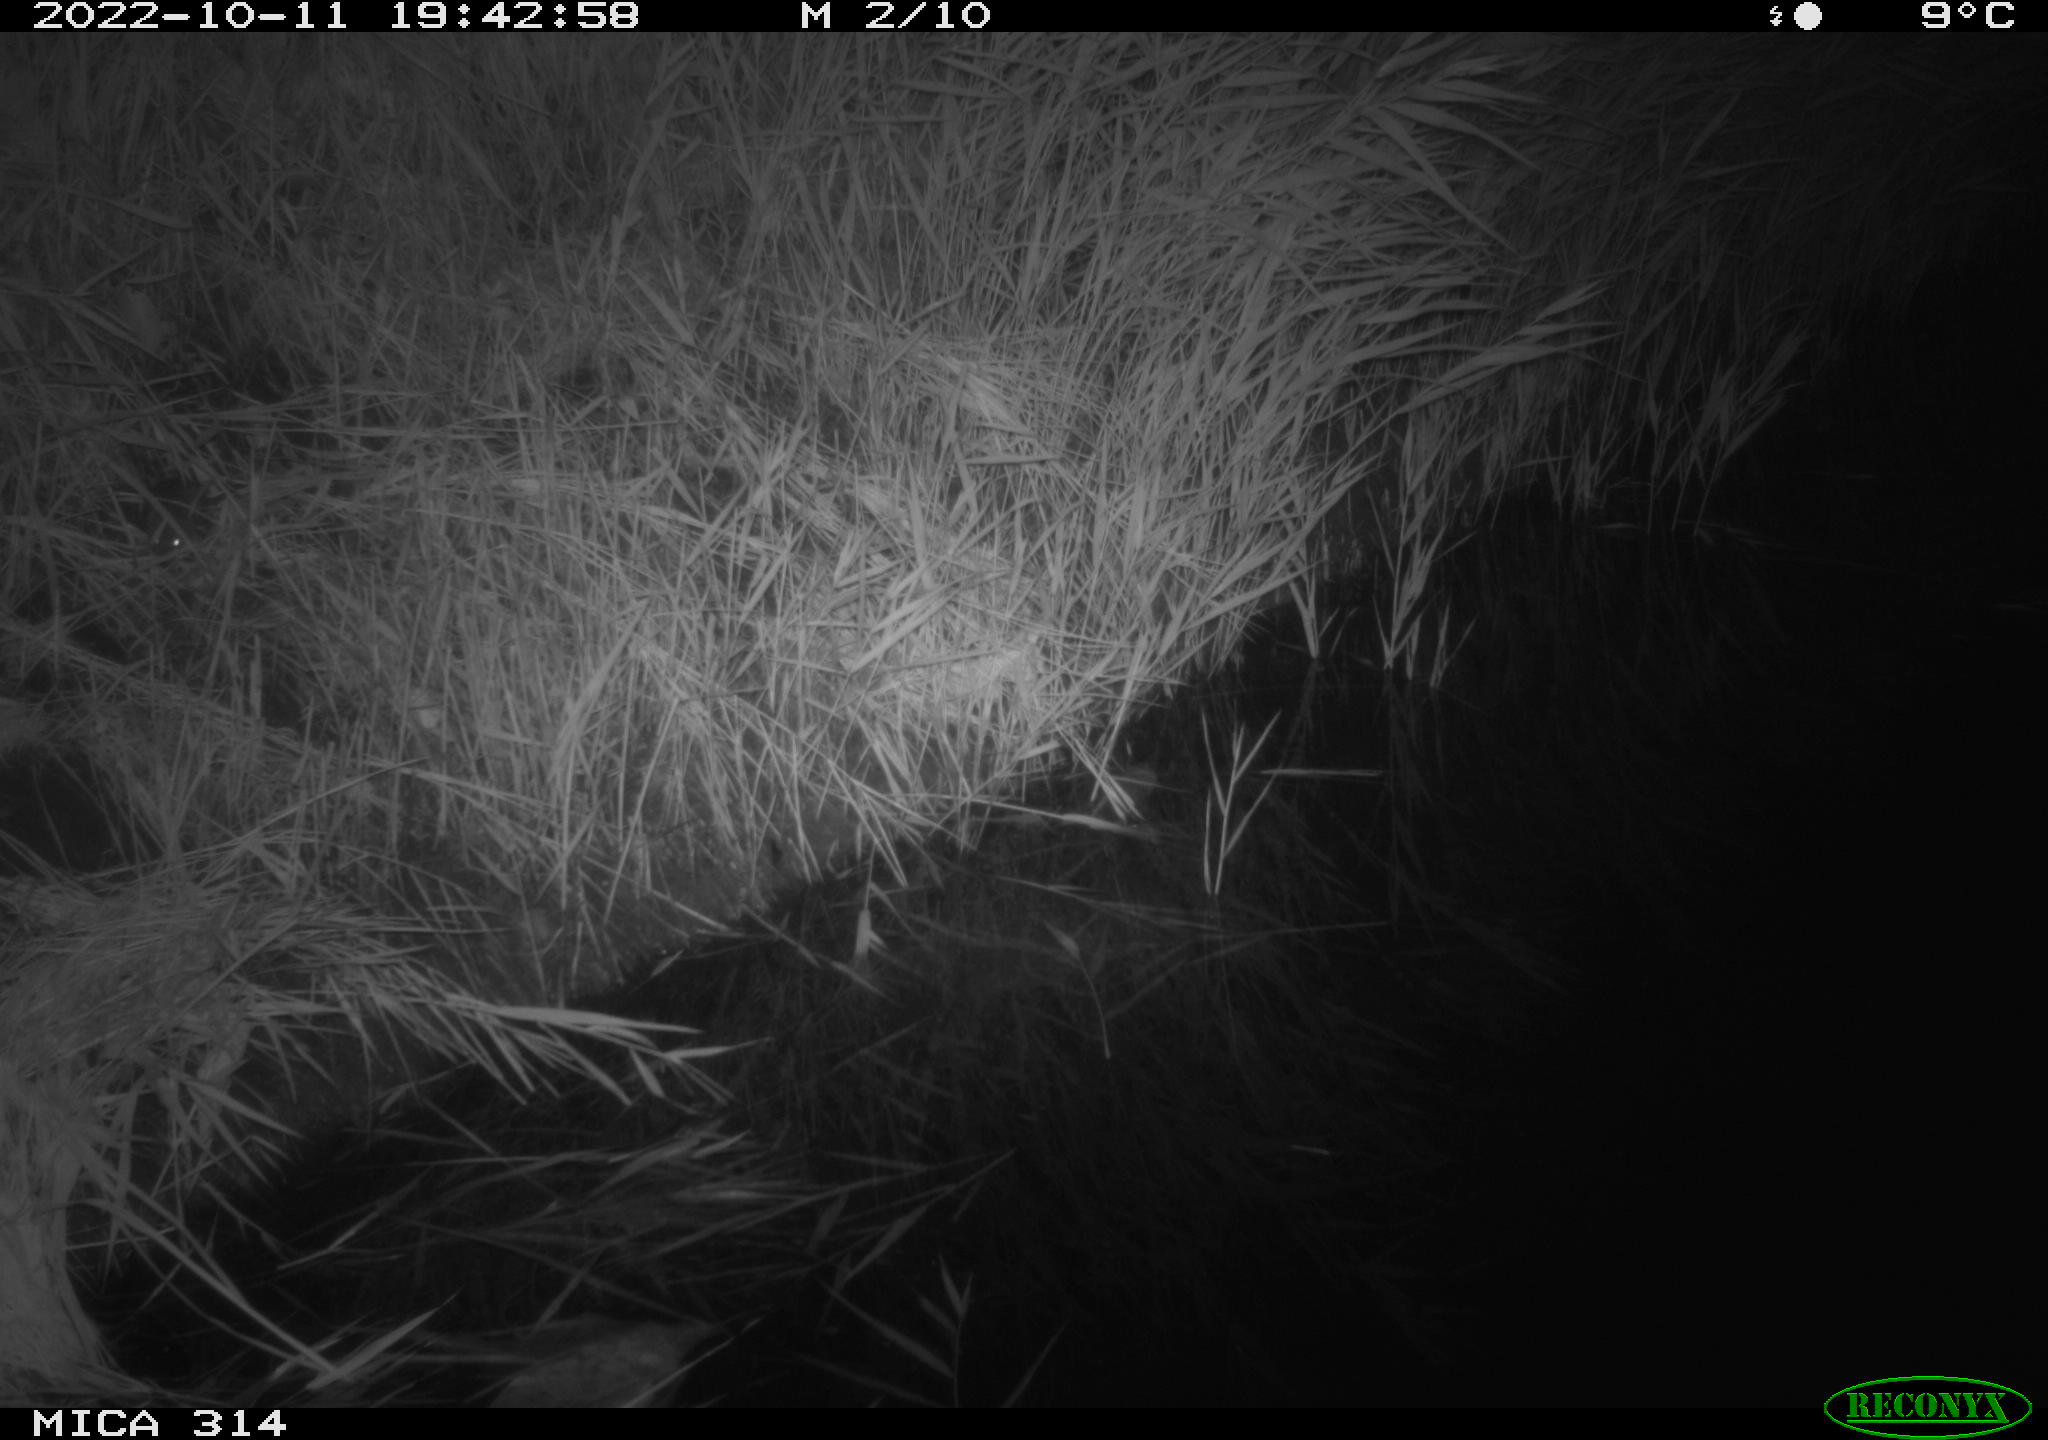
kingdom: Animalia
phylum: Chordata
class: Mammalia
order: Rodentia
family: Muridae
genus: Rattus
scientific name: Rattus norvegicus
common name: Brown rat
